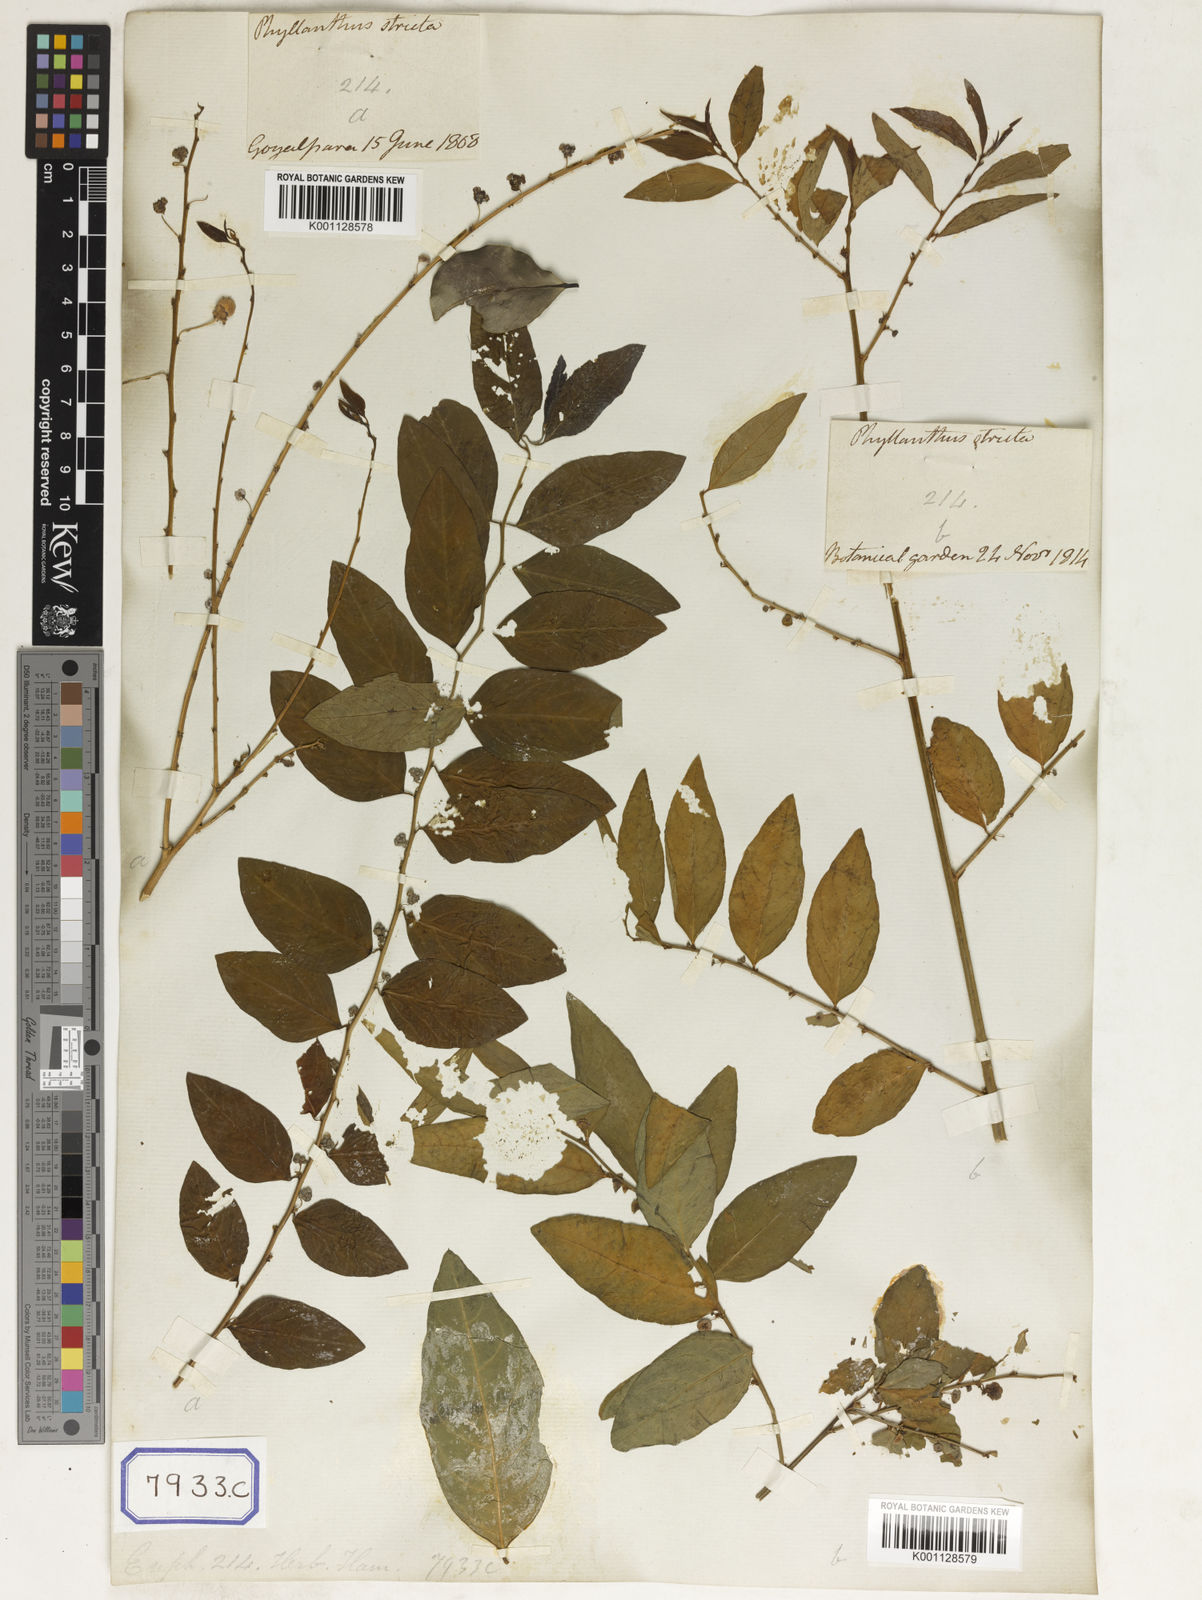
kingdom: Plantae
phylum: Tracheophyta
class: Magnoliopsida
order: Malpighiales
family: Euphorbiaceae
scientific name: Euphorbiaceae
